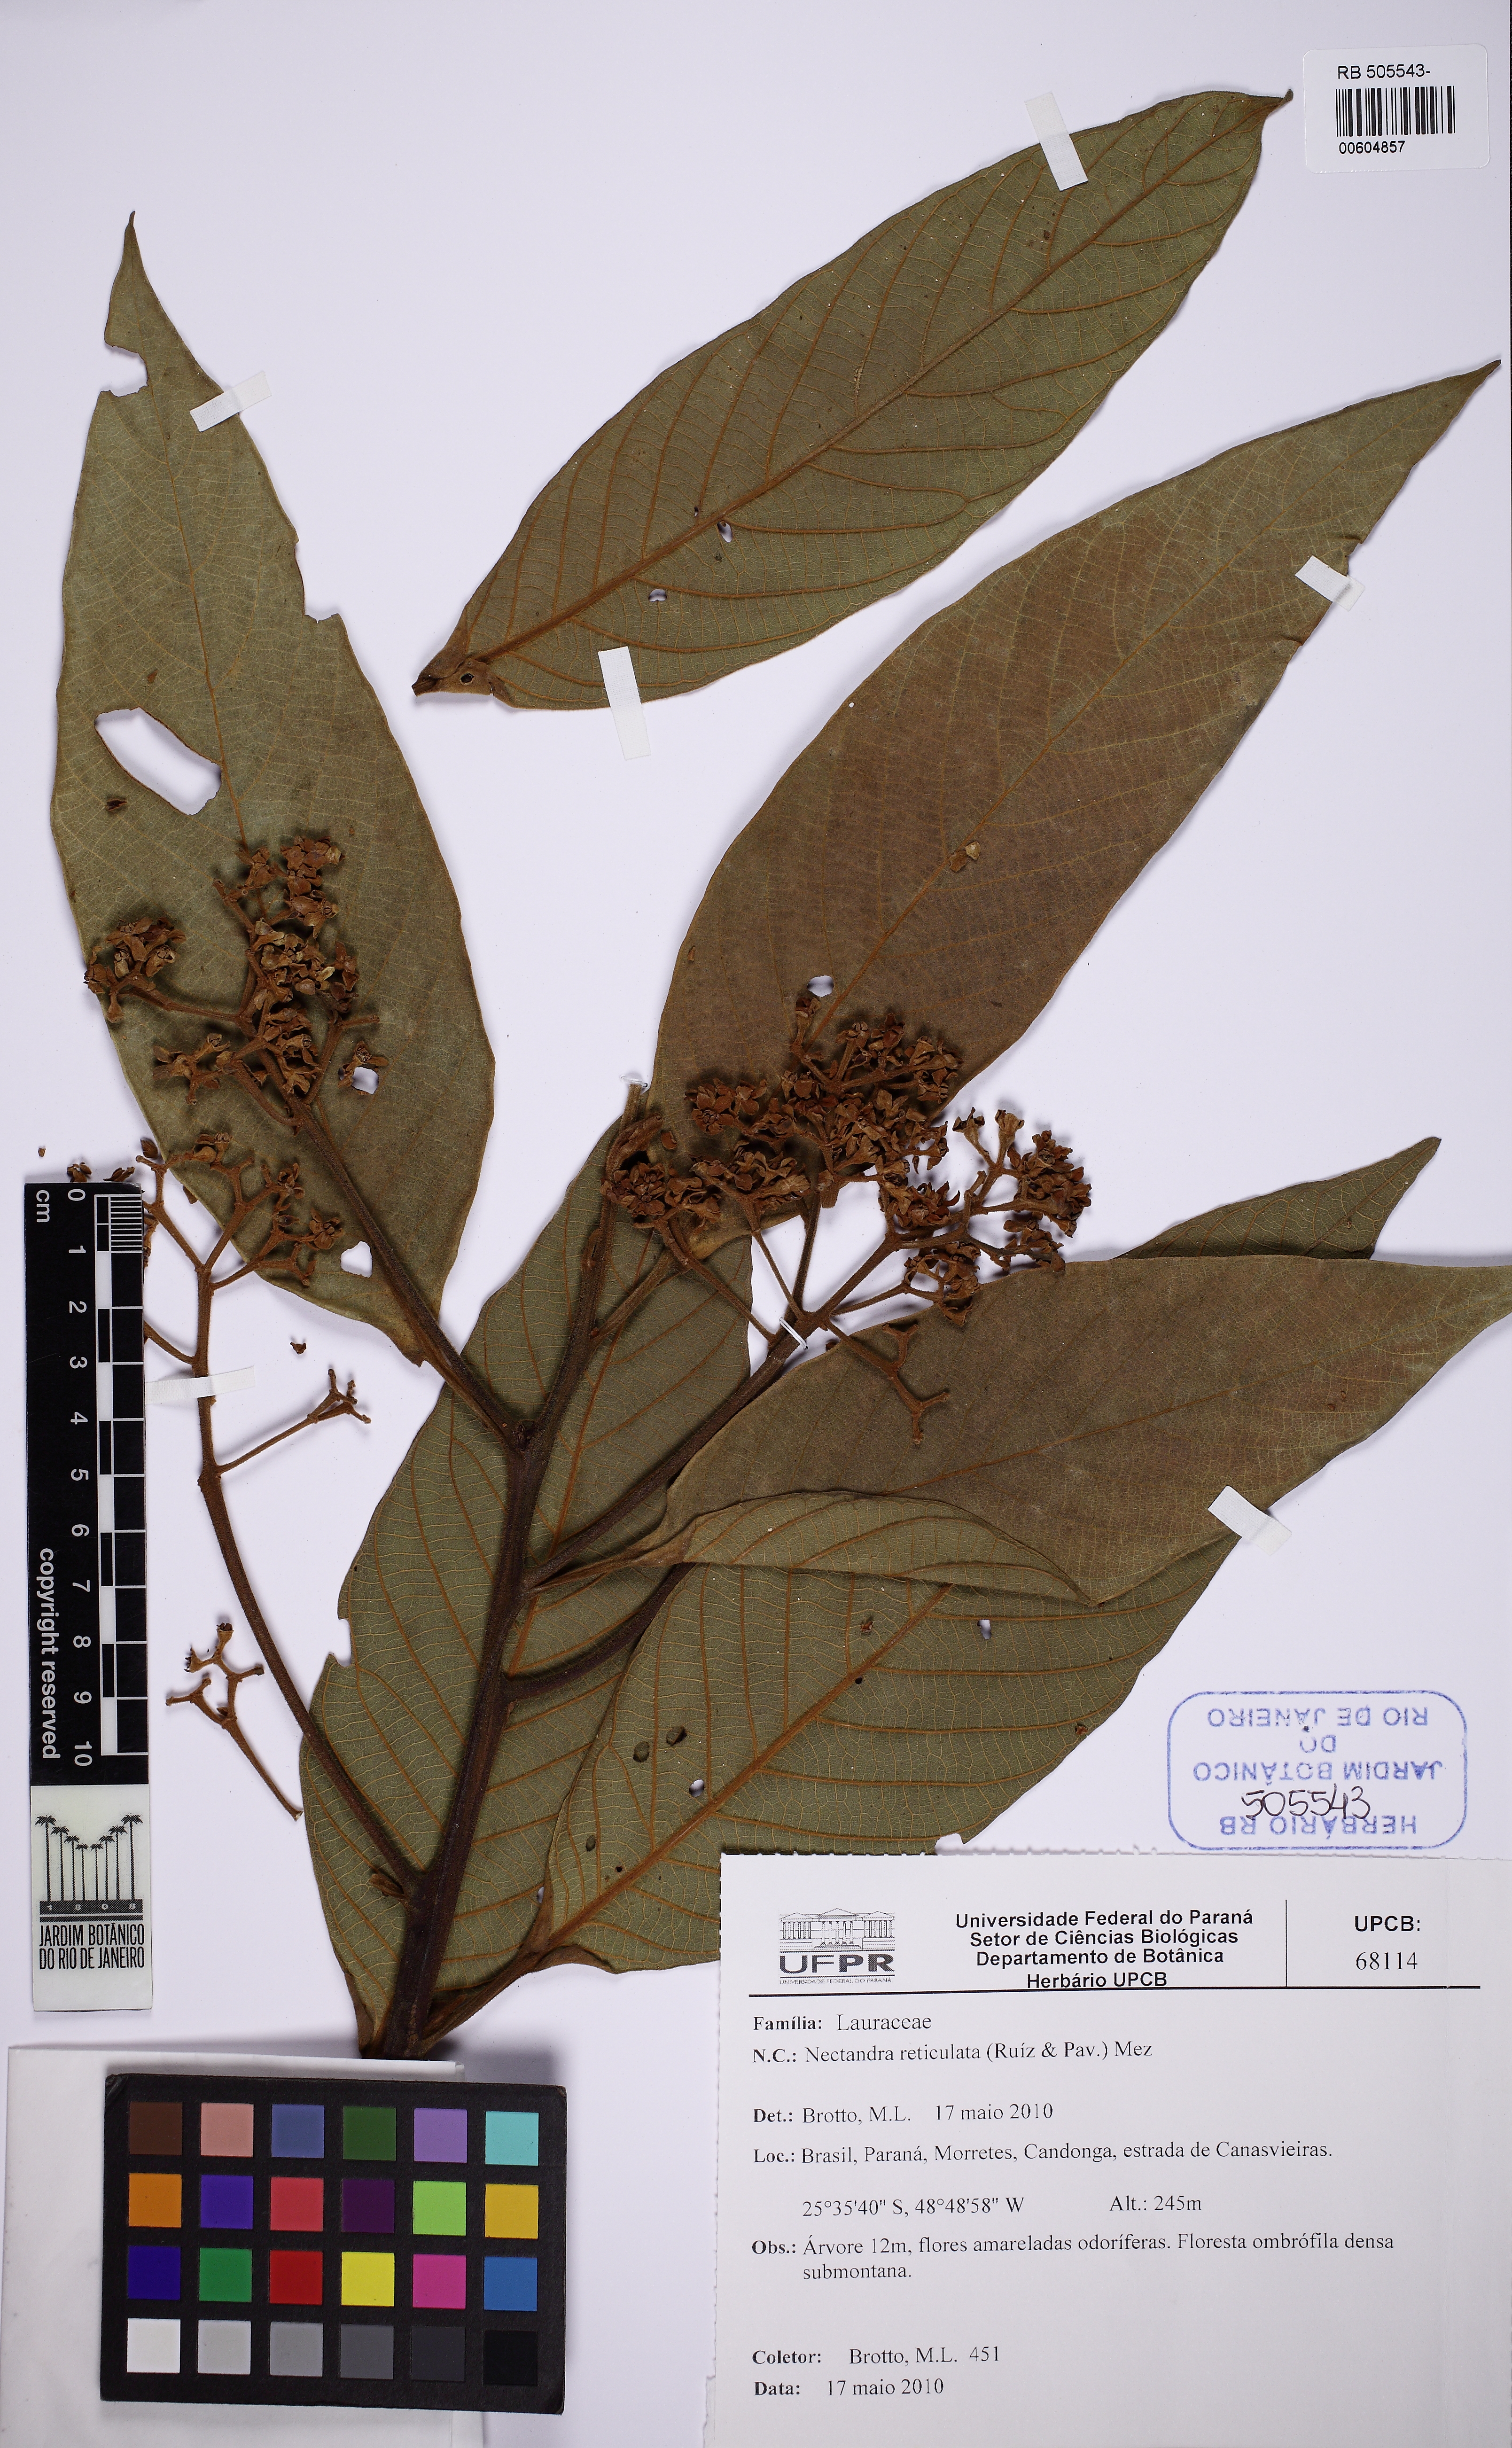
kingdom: Plantae
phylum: Tracheophyta
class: Magnoliopsida
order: Laurales
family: Lauraceae
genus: Nectandra
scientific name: Nectandra villosa
